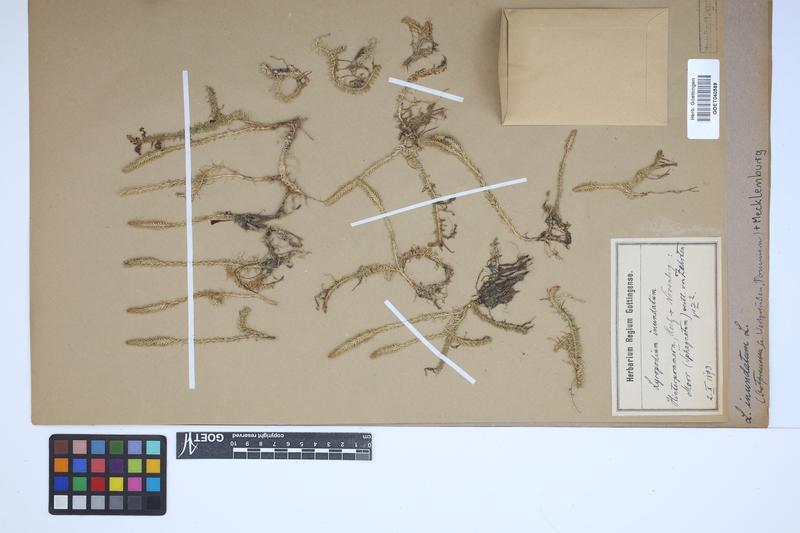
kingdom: Plantae
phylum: Tracheophyta
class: Lycopodiopsida
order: Lycopodiales
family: Lycopodiaceae
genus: Lycopodiella
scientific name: Lycopodiella inundata
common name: Marsh clubmoss
